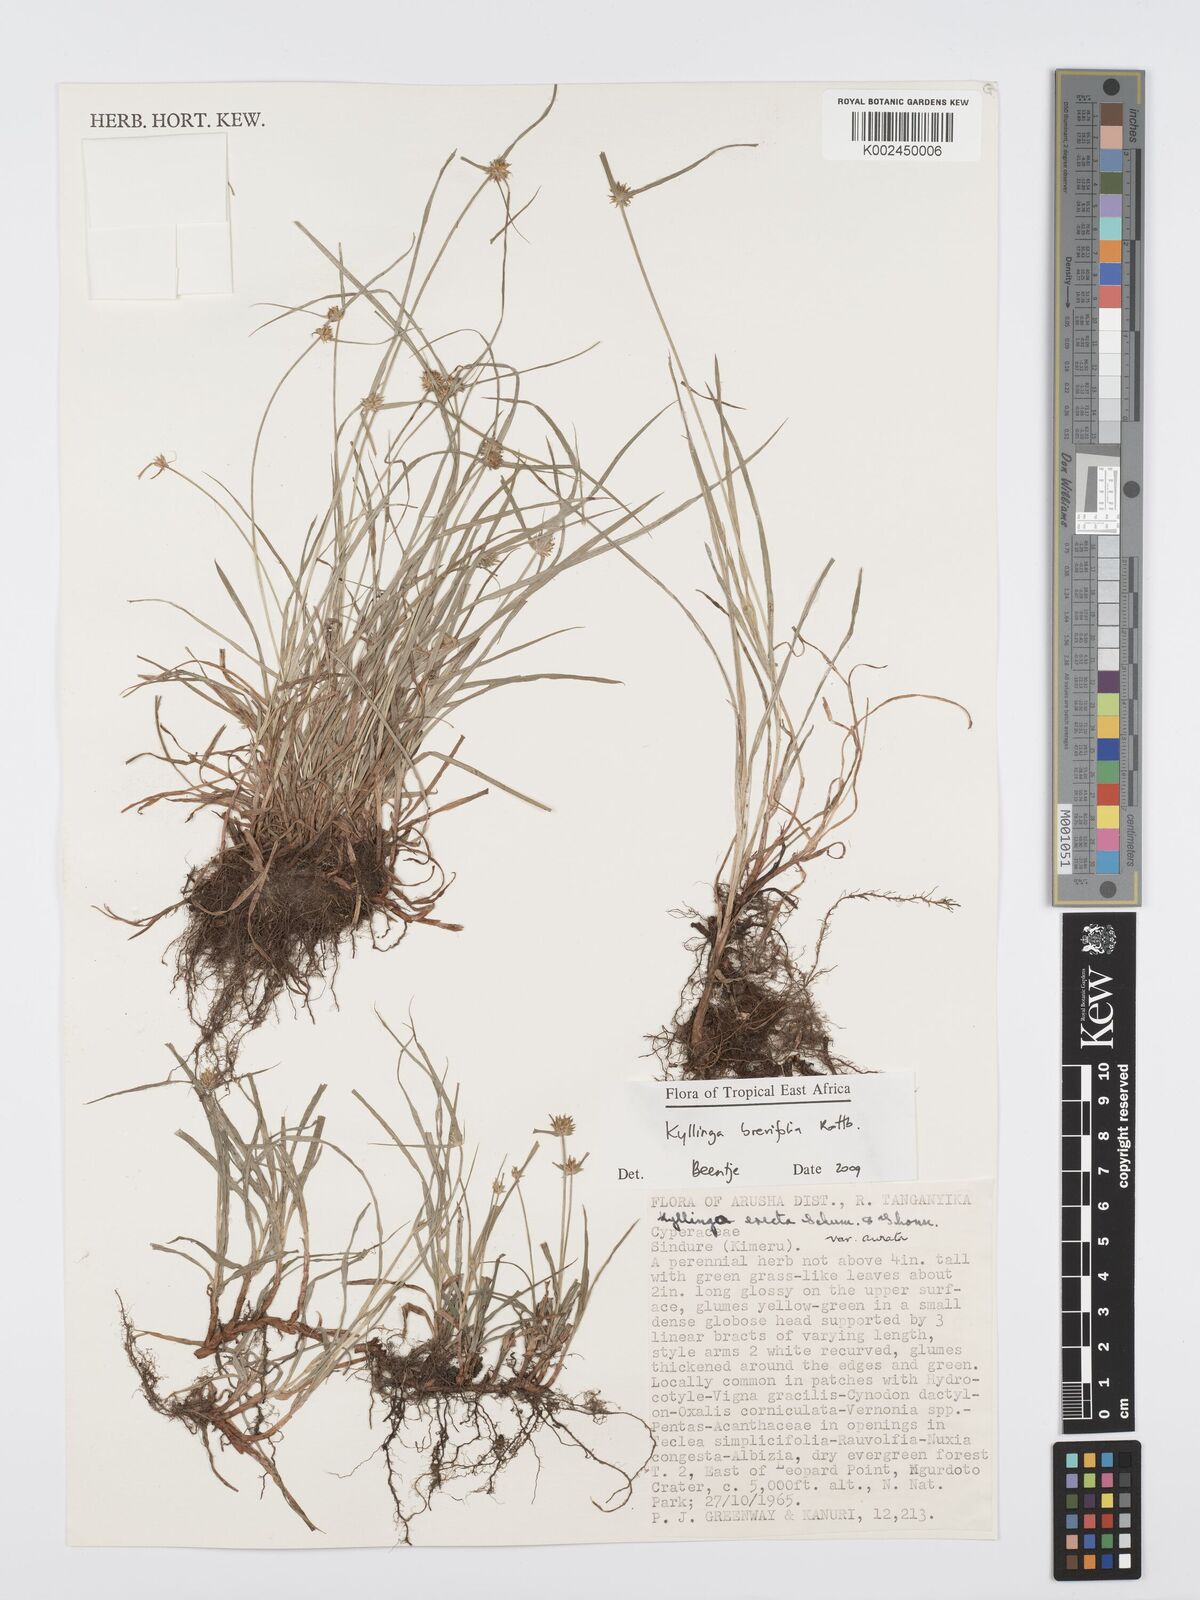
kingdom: Plantae
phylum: Tracheophyta
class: Liliopsida
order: Poales
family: Cyperaceae
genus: Cyperus
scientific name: Cyperus brevifolius
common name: Globe kyllinga
